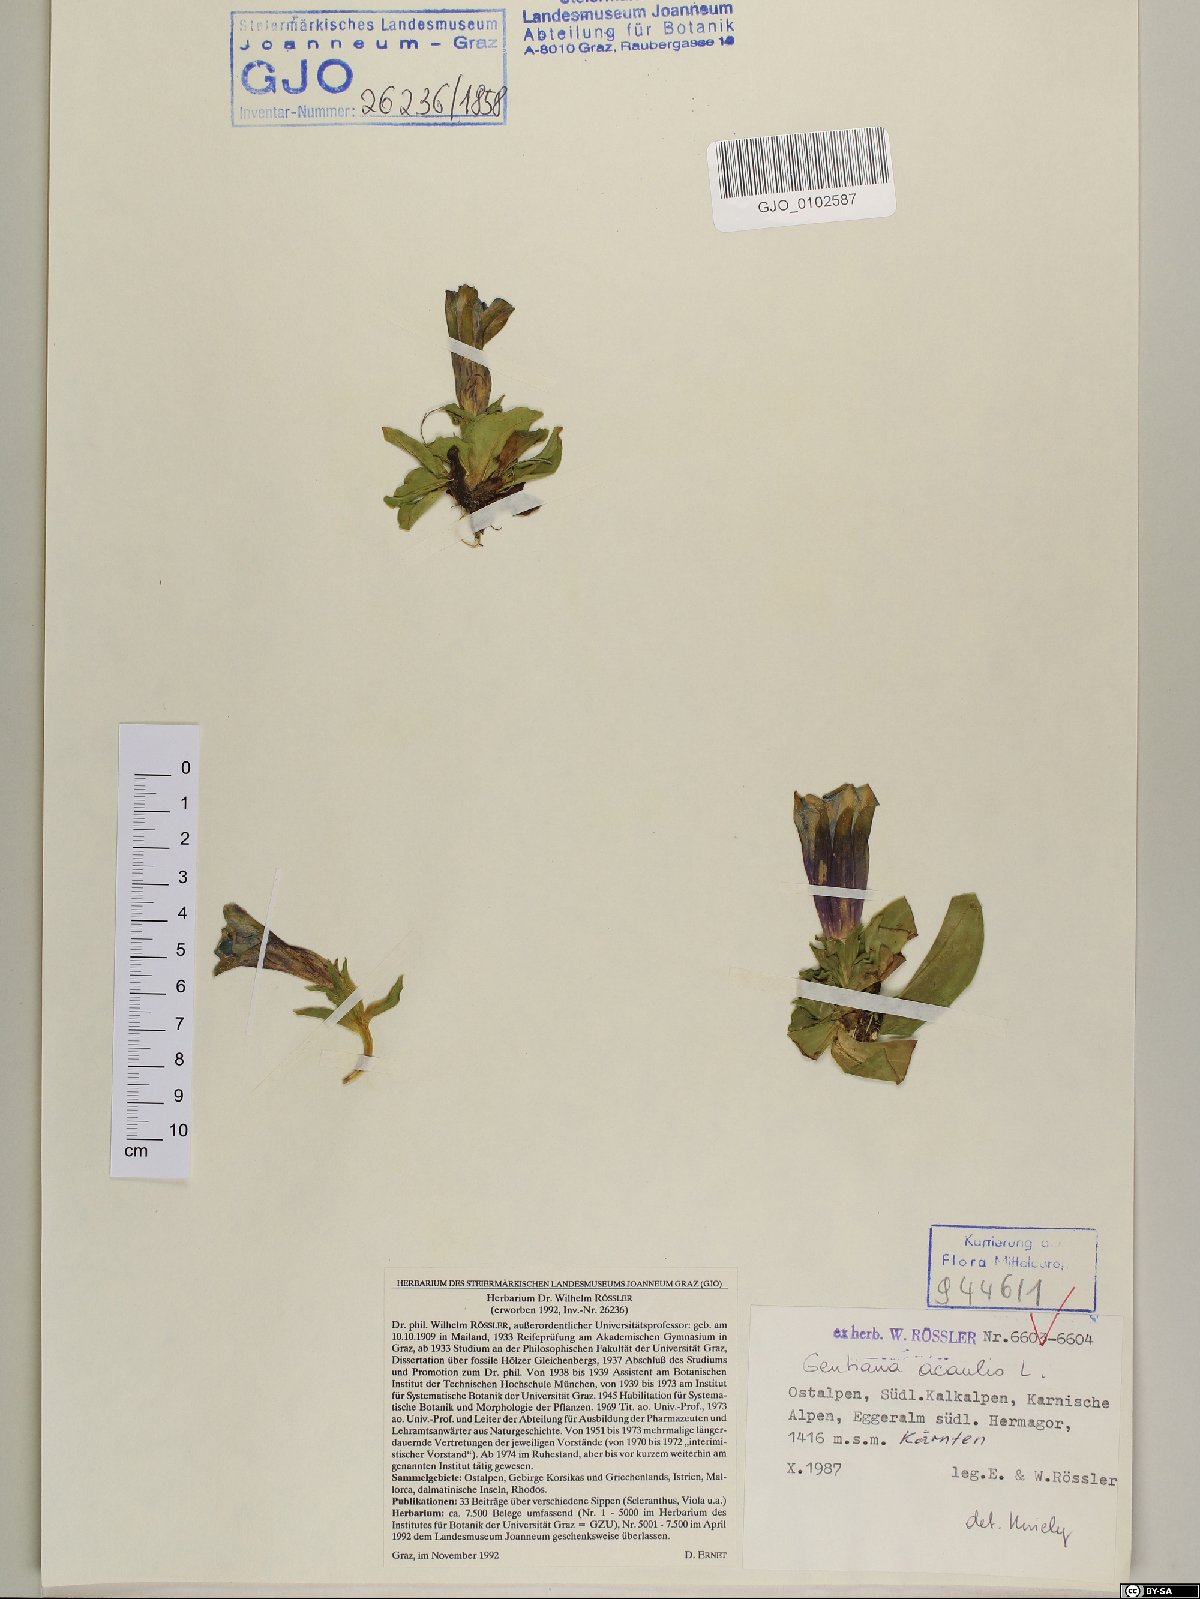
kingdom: Plantae
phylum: Tracheophyta
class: Magnoliopsida
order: Gentianales
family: Gentianaceae
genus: Gentiana
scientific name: Gentiana acaulis
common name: Trumpet gentian
